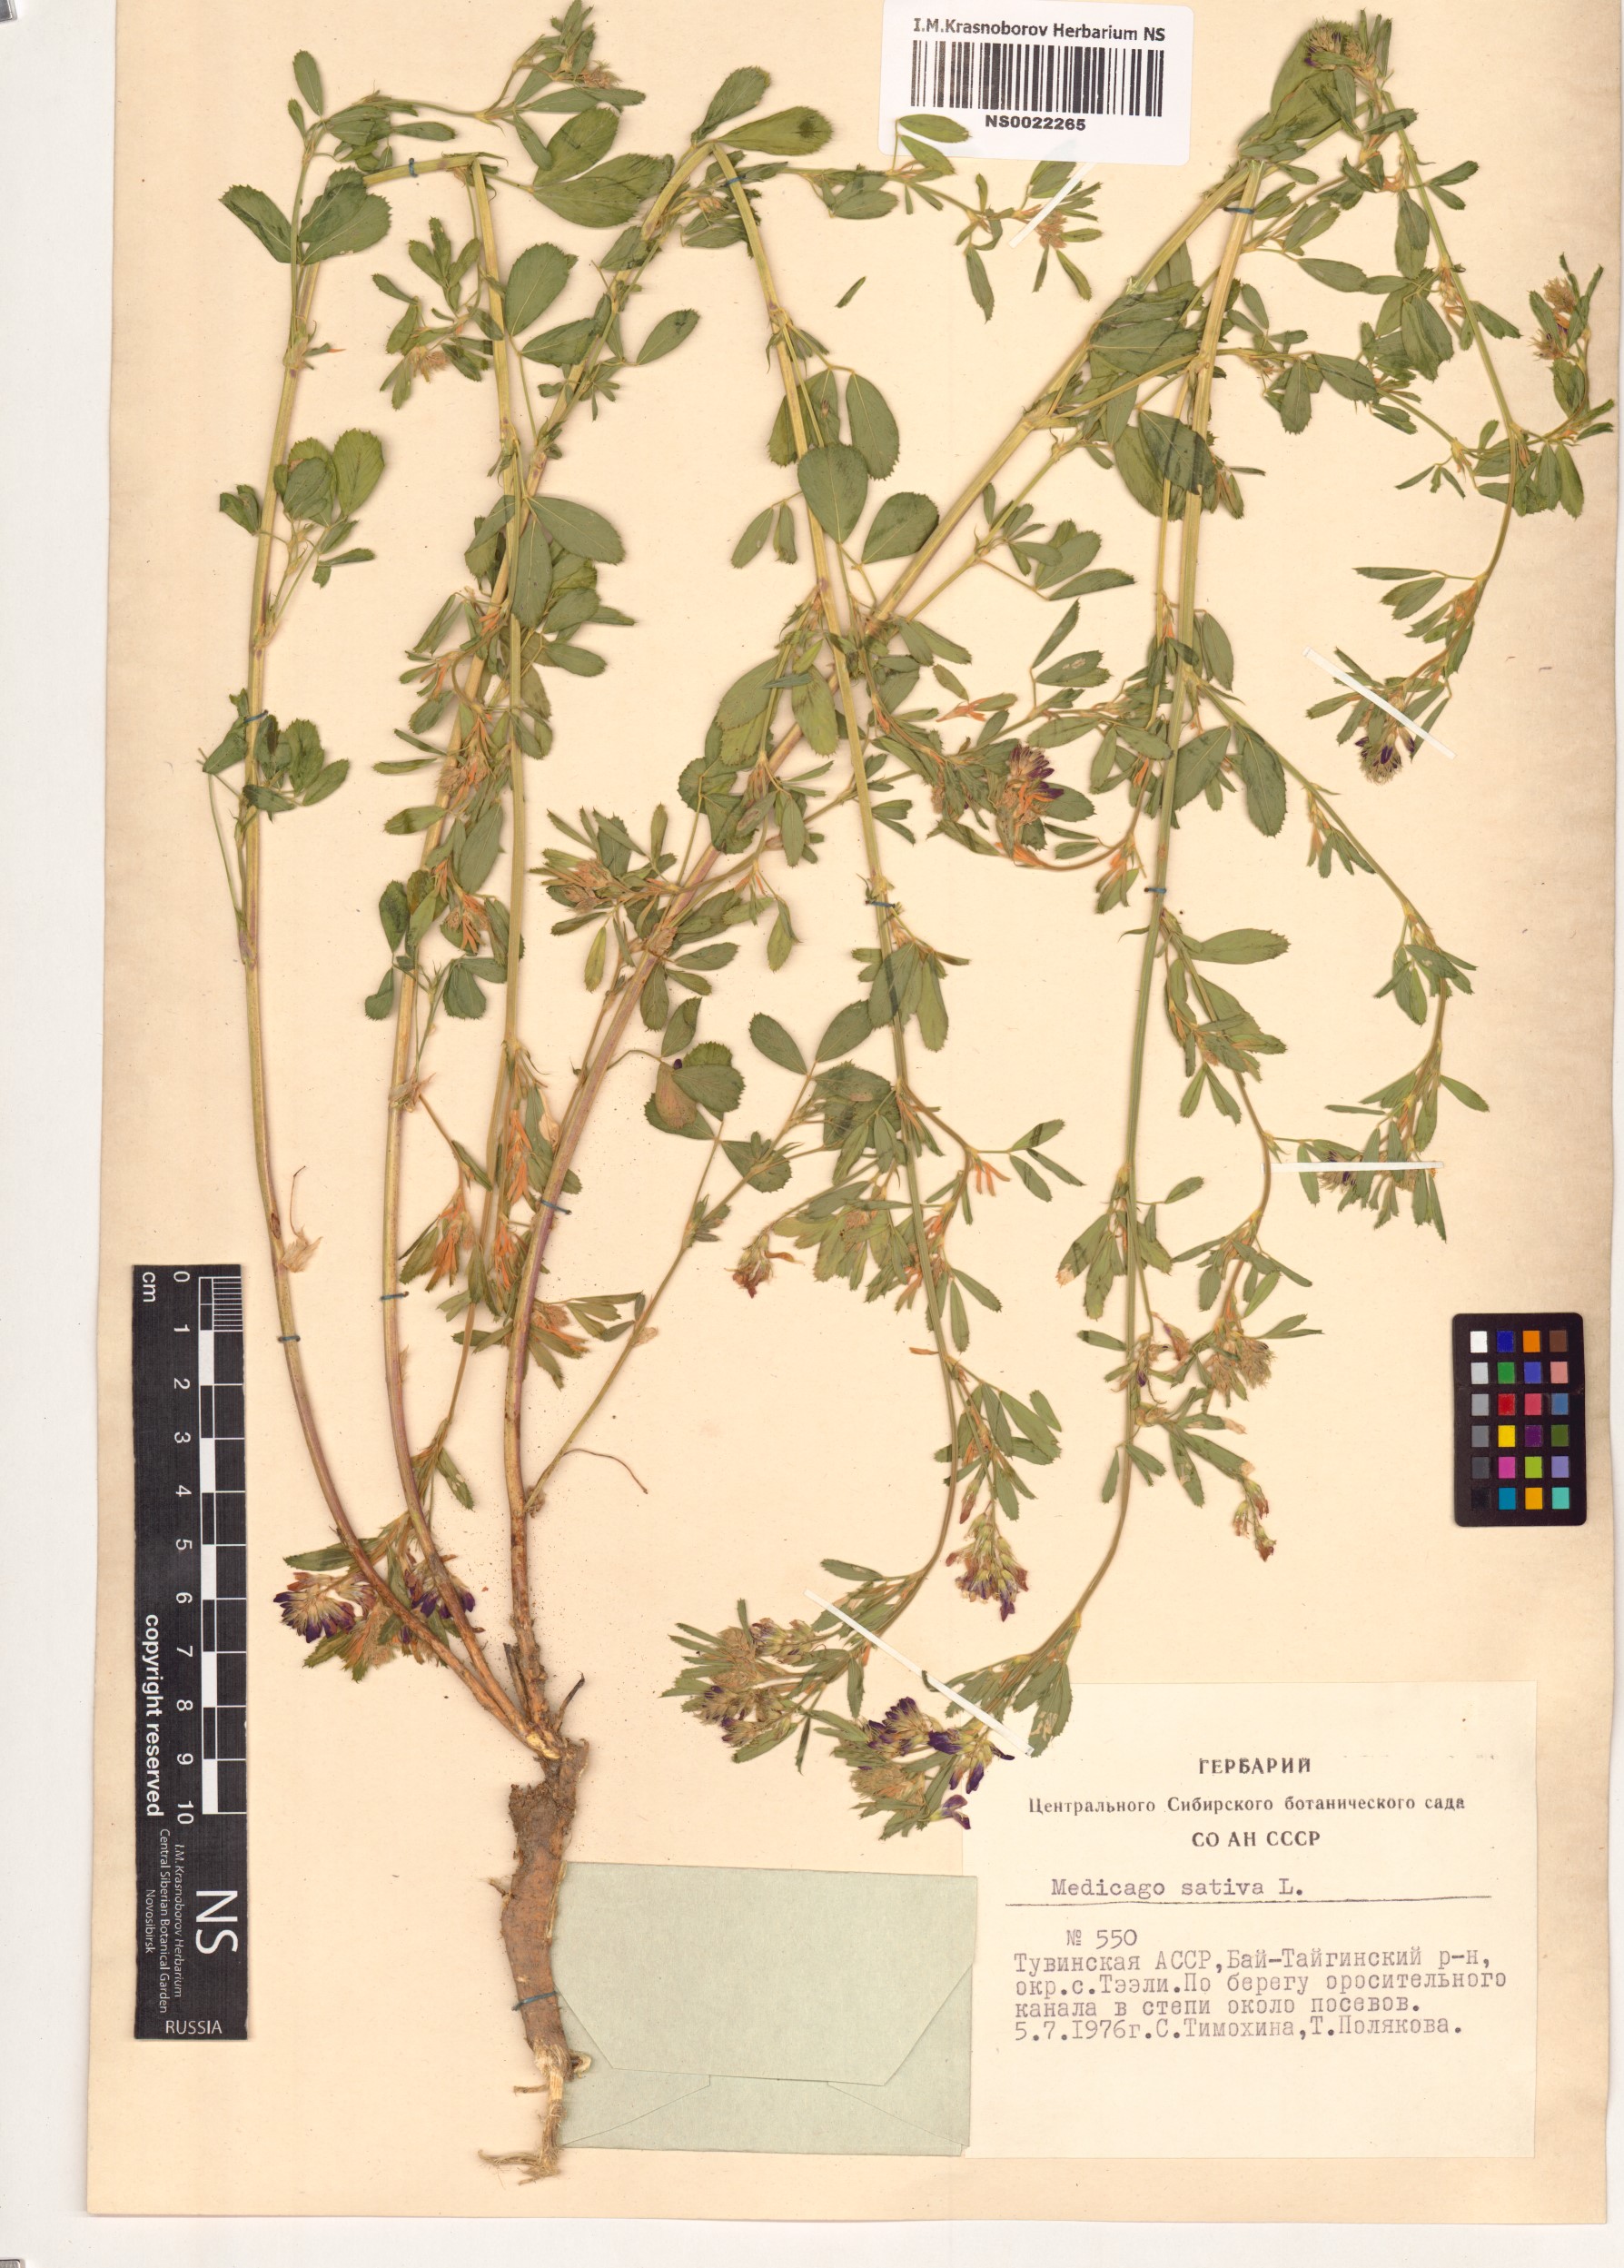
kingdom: Plantae
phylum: Tracheophyta
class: Magnoliopsida
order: Fabales
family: Fabaceae
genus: Medicago
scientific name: Medicago sativa
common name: Alfalfa
